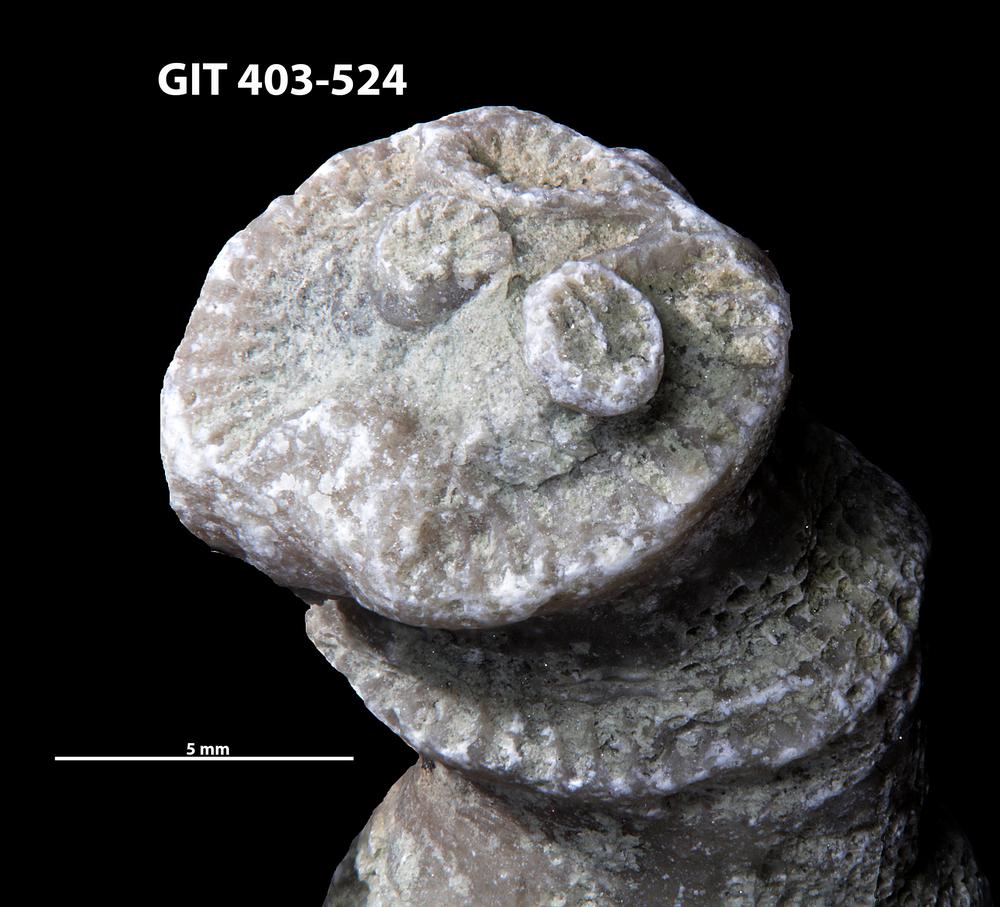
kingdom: Animalia
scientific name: Animalia
